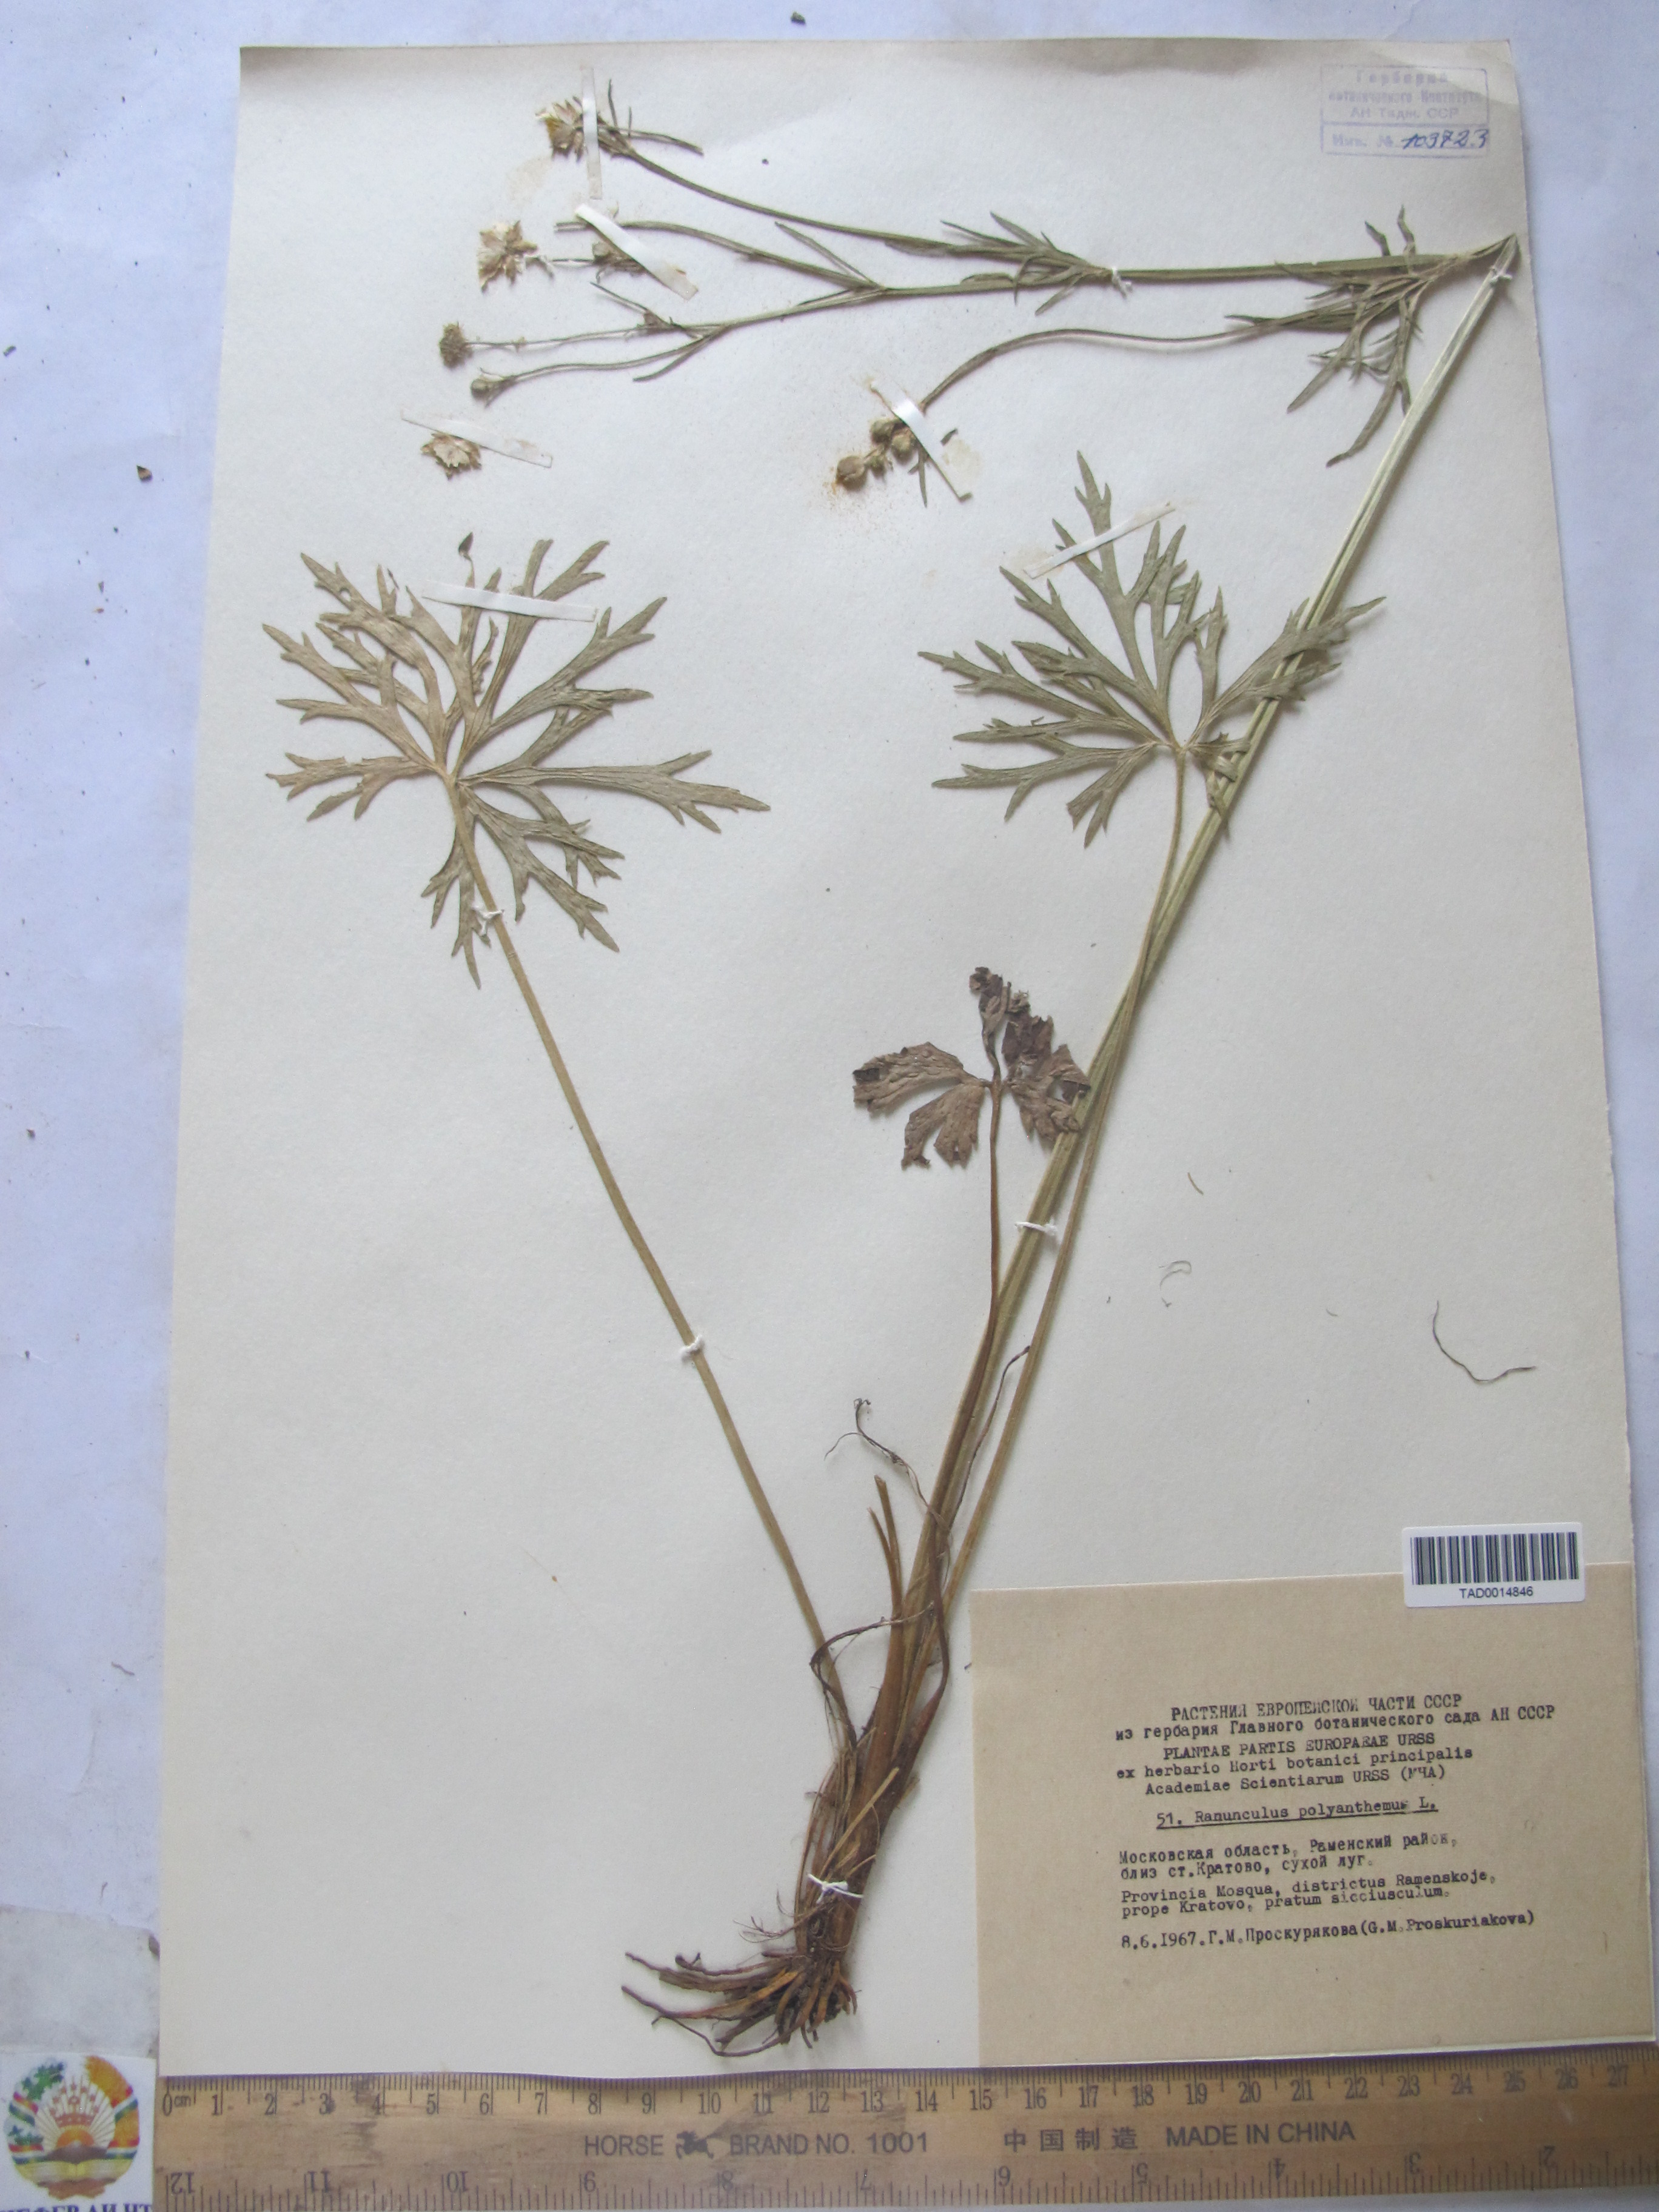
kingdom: Plantae
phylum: Tracheophyta
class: Magnoliopsida
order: Ranunculales
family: Ranunculaceae
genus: Ranunculus
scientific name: Ranunculus polyanthemos
